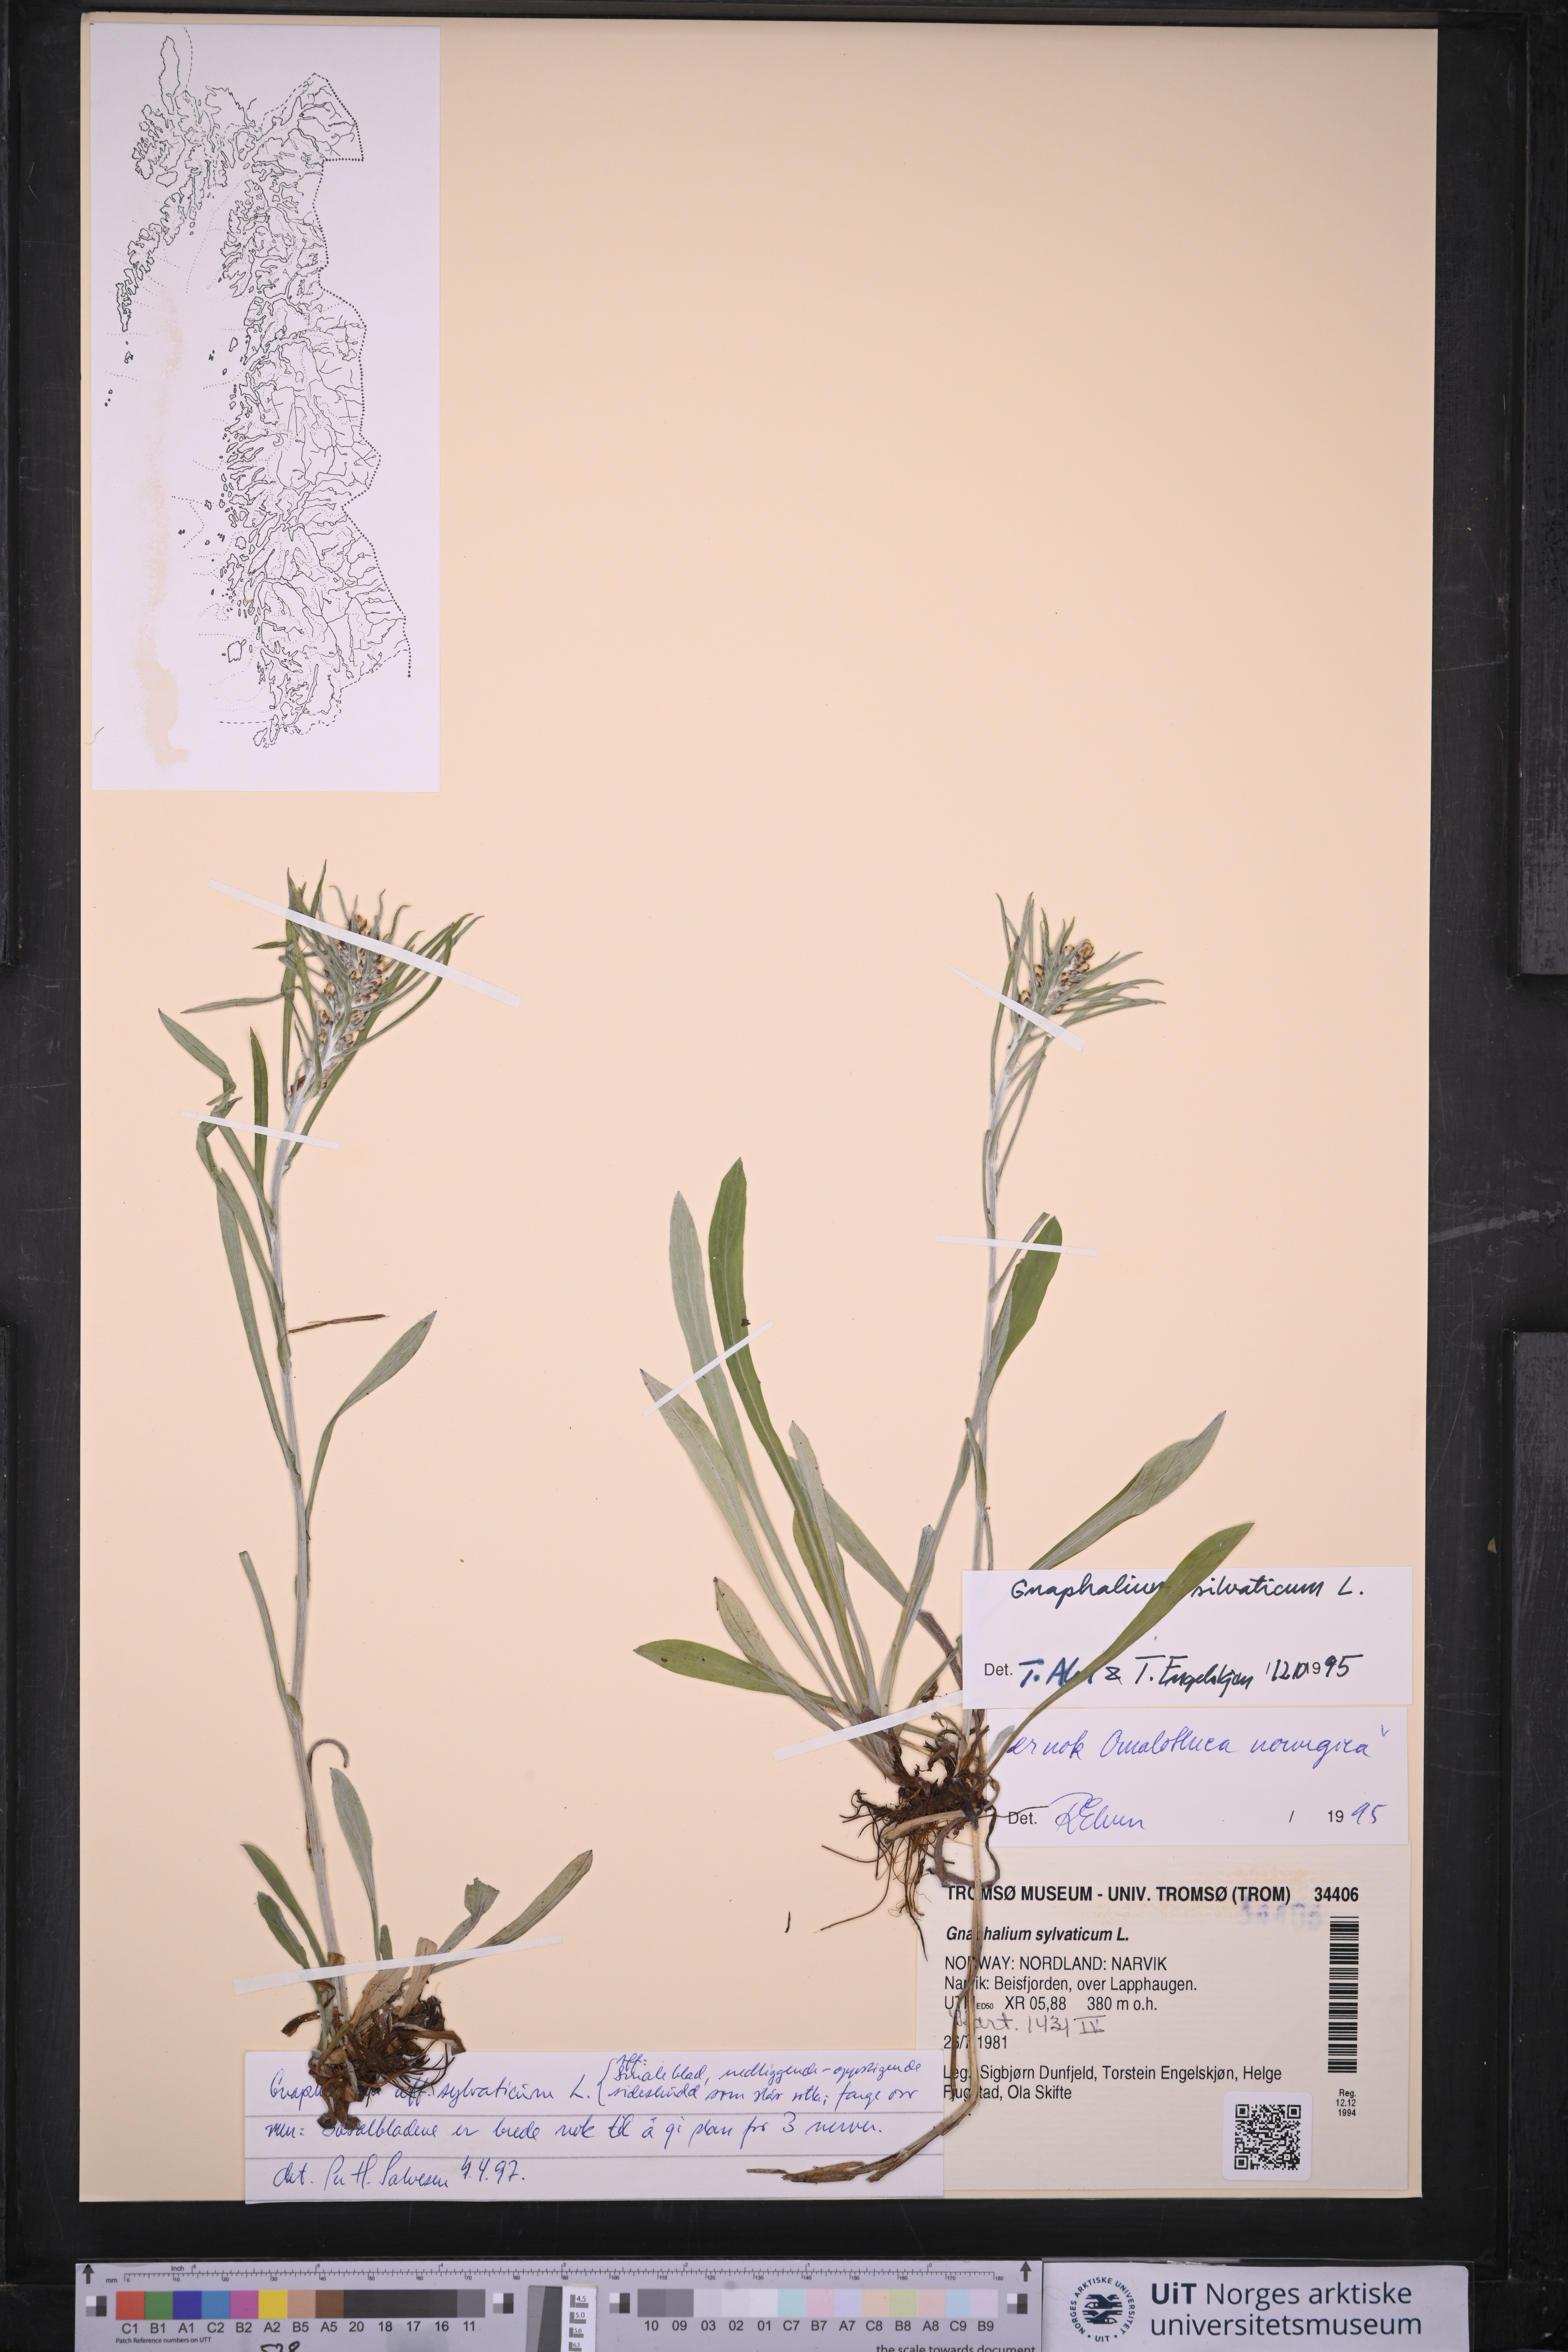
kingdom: Plantae
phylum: Tracheophyta
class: Magnoliopsida
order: Asterales
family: Asteraceae
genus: Omalotheca
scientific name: Omalotheca sylvatica
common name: Heath cudweed
